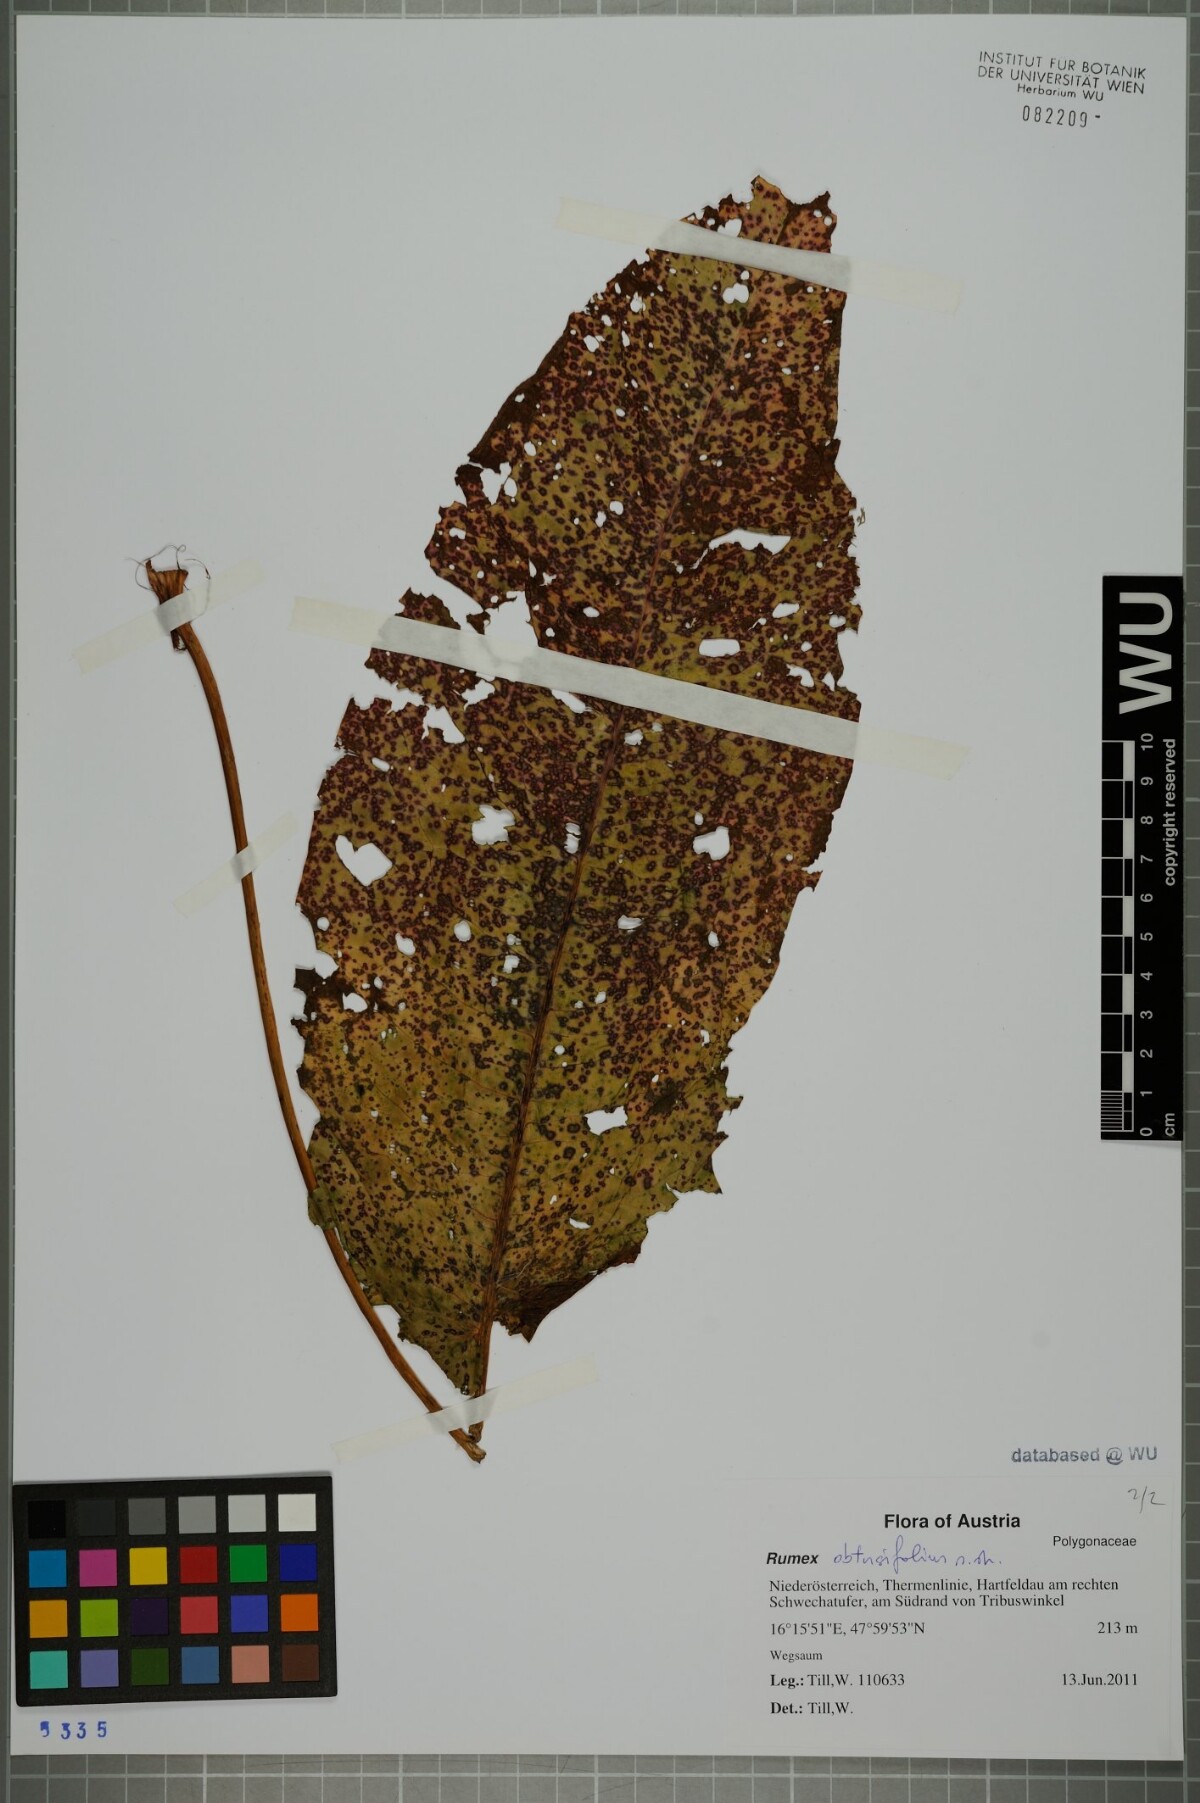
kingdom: Plantae
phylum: Tracheophyta
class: Magnoliopsida
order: Caryophyllales
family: Polygonaceae
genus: Rumex
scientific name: Rumex obtusifolius
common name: Bitter dock
